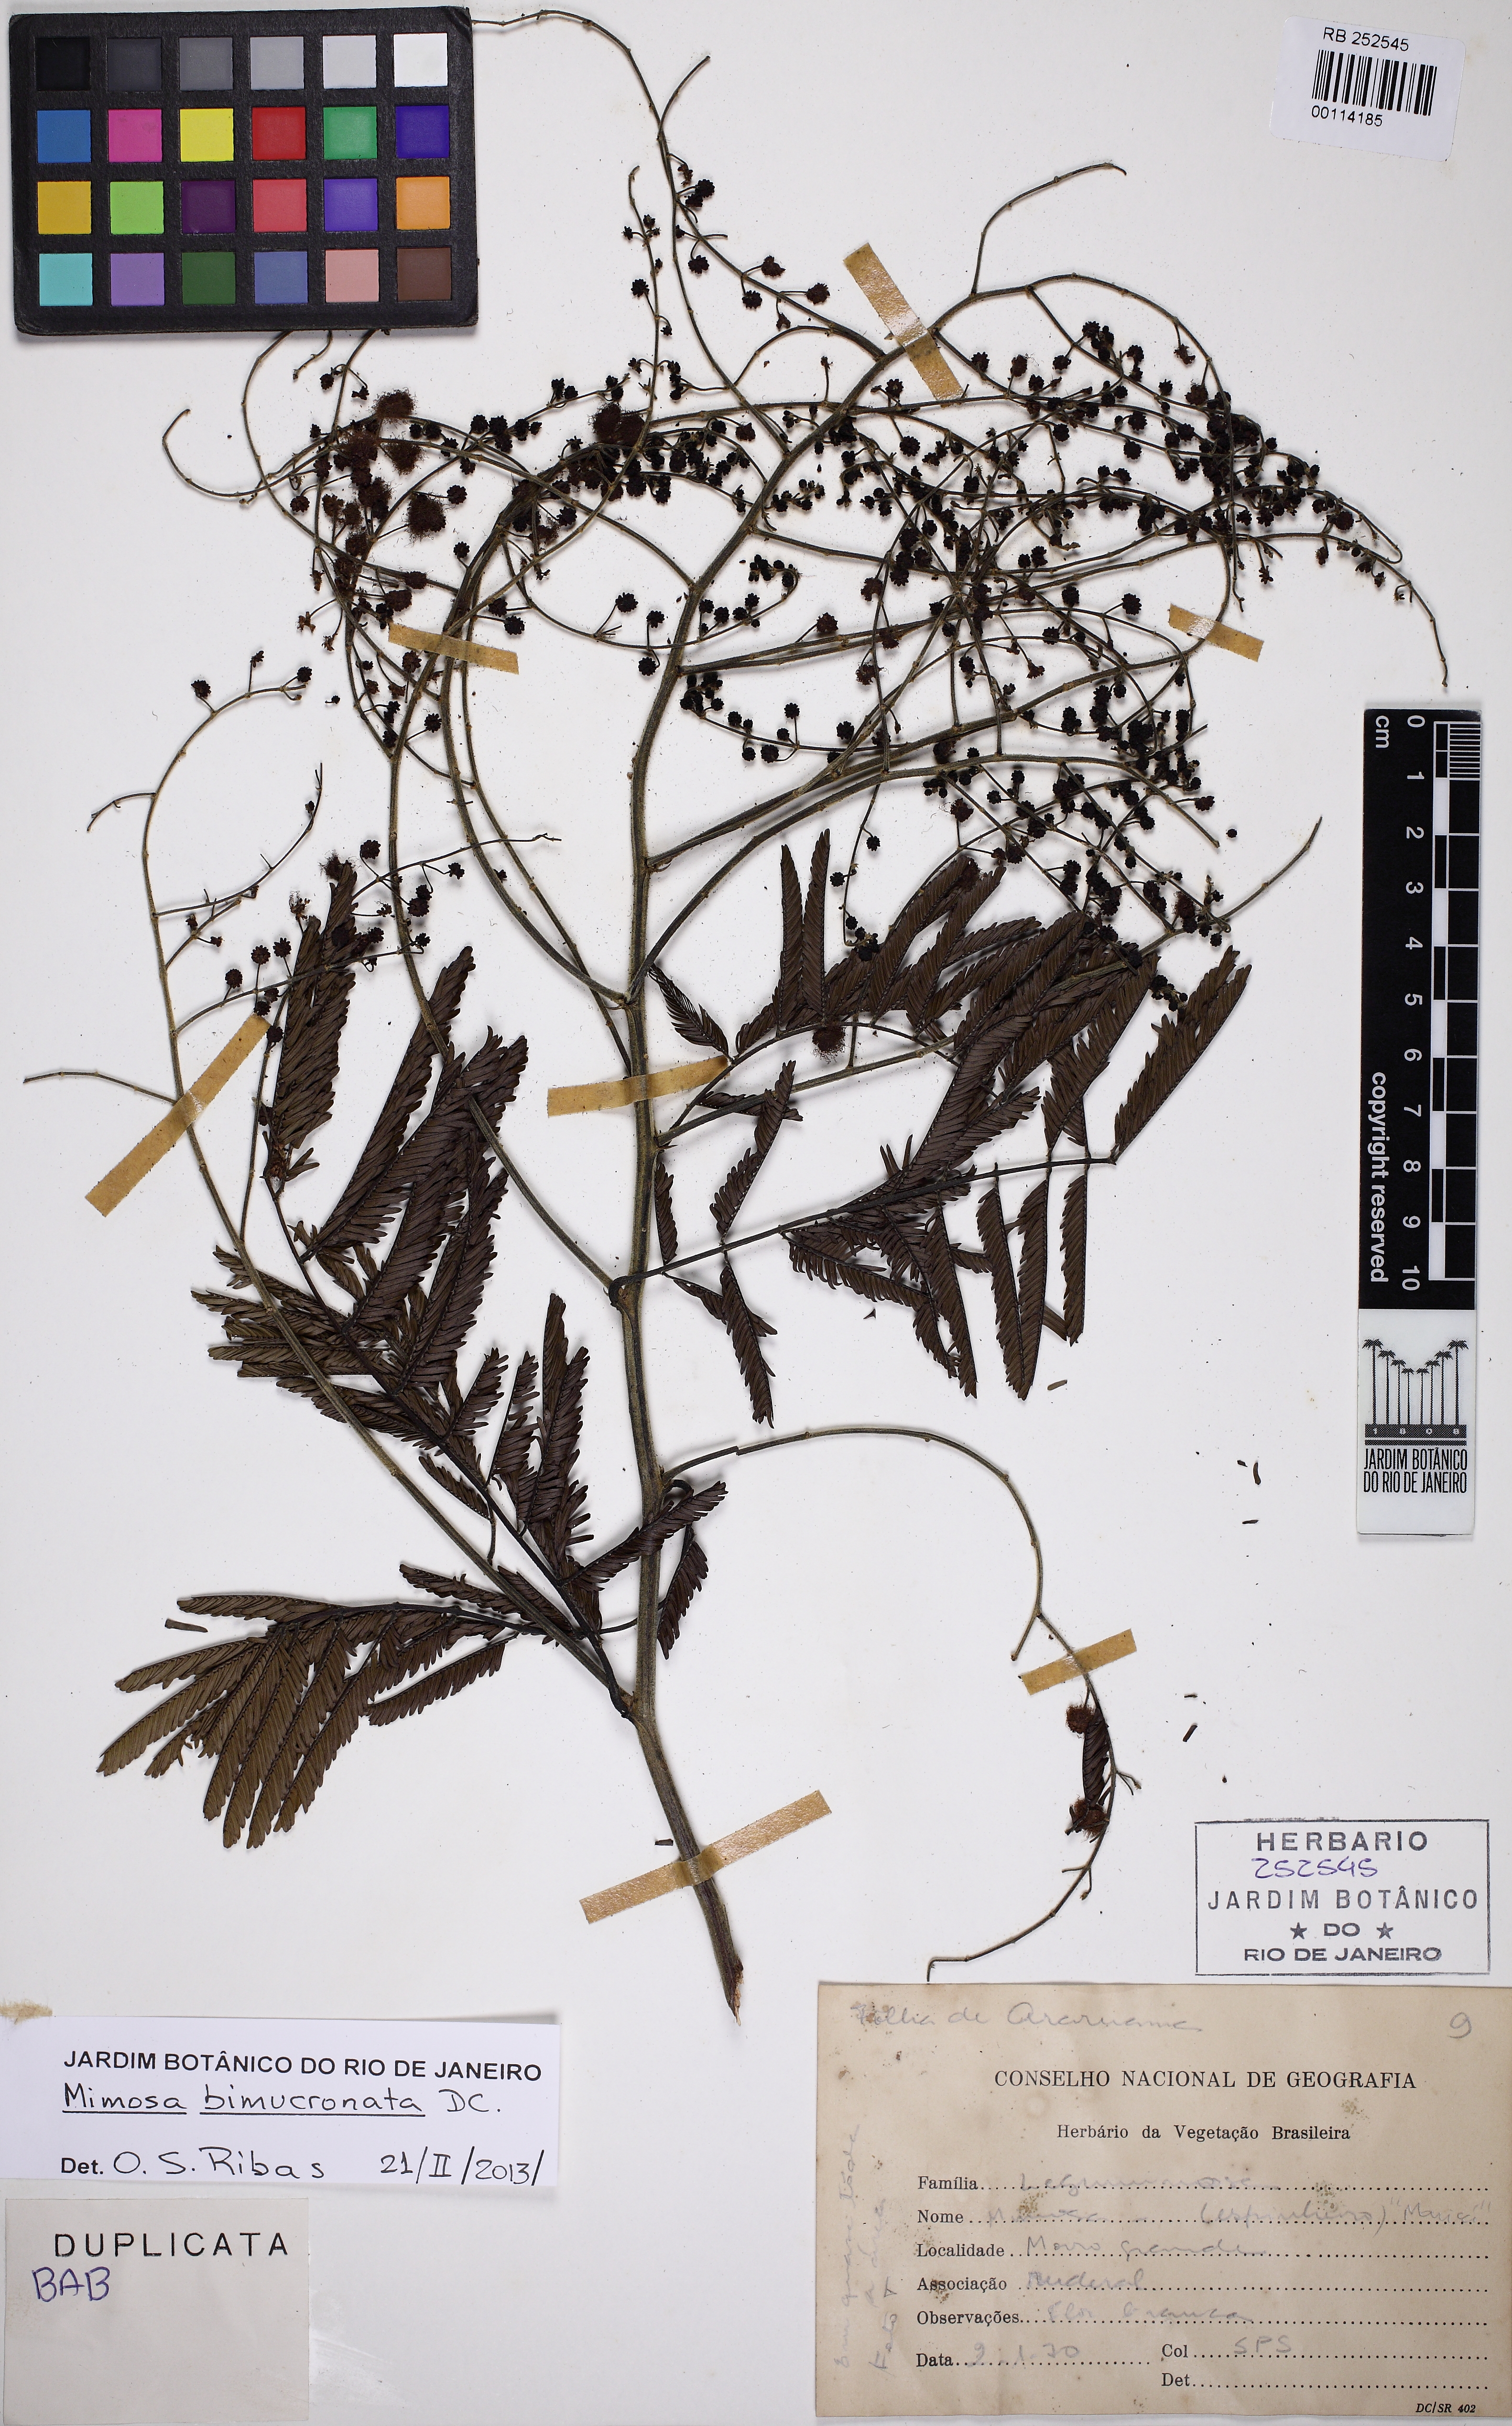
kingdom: Plantae
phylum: Tracheophyta
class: Magnoliopsida
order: Fabales
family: Fabaceae
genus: Mimosa
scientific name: Mimosa bimucronata
